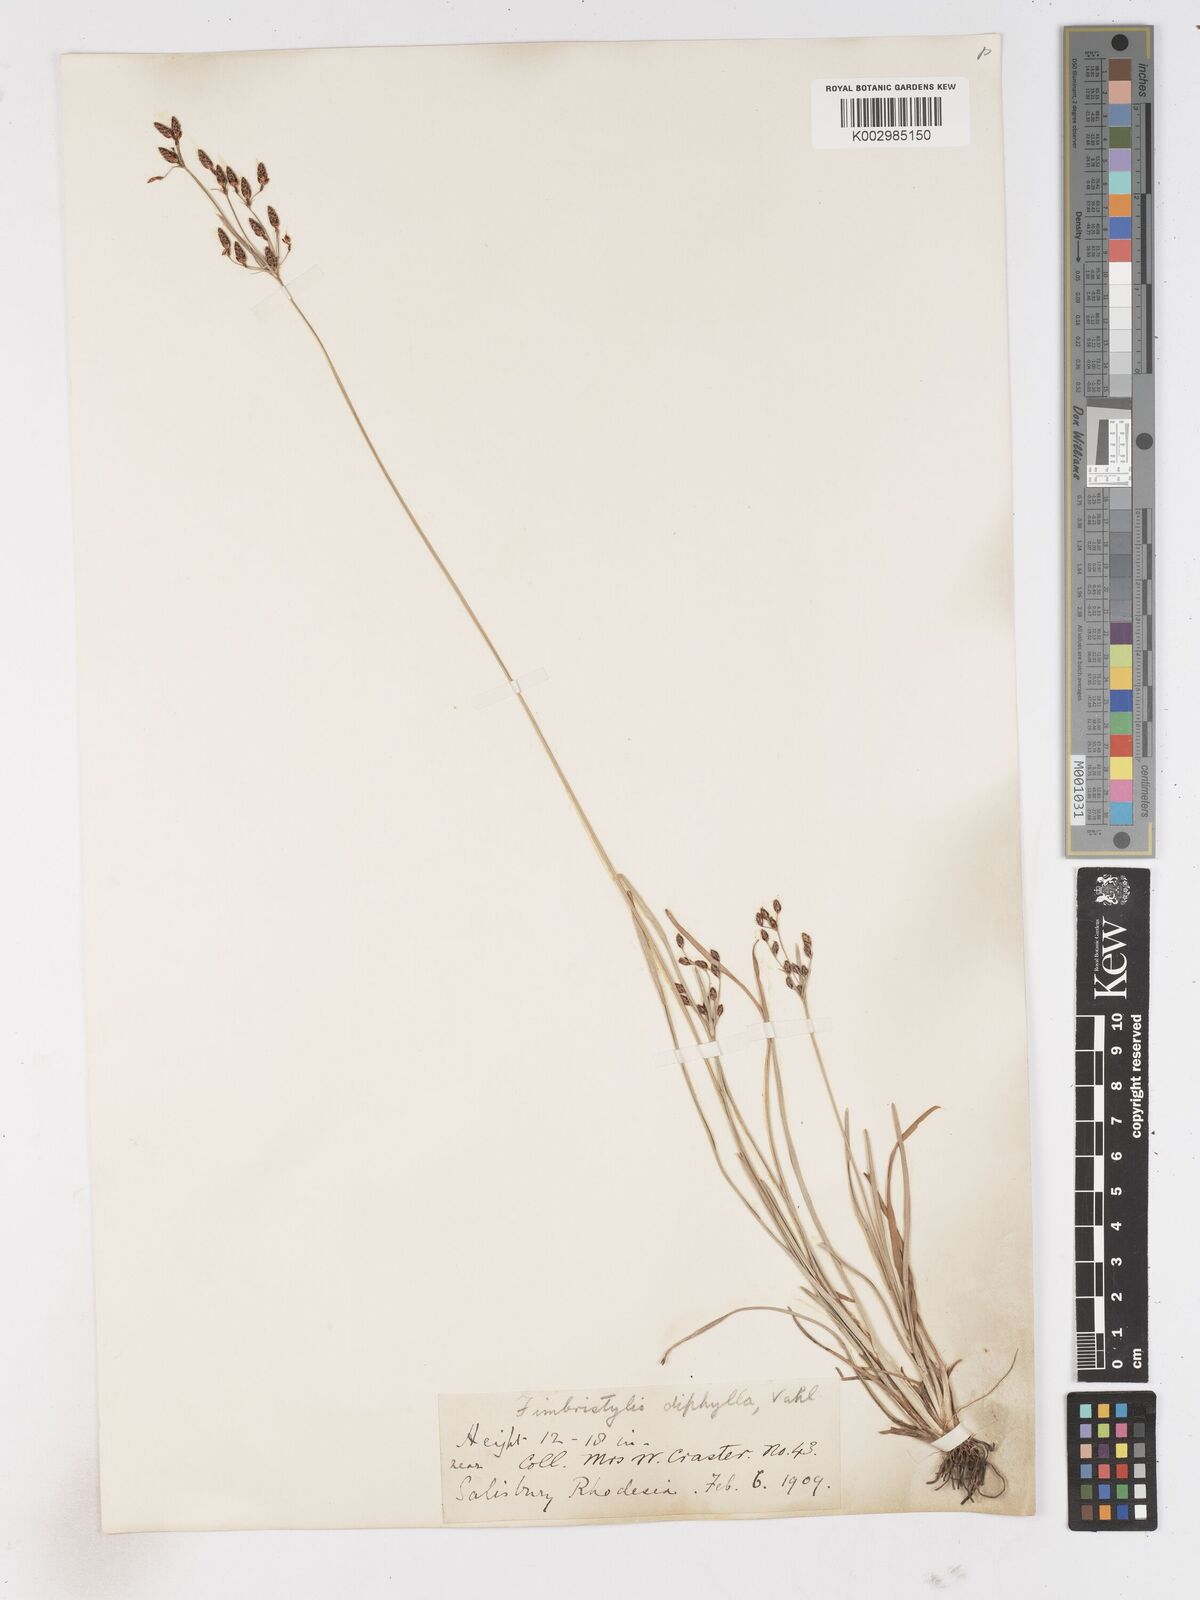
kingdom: Plantae
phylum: Tracheophyta
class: Liliopsida
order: Poales
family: Cyperaceae
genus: Fimbristylis
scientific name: Fimbristylis dichotoma
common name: Forked fimbry
